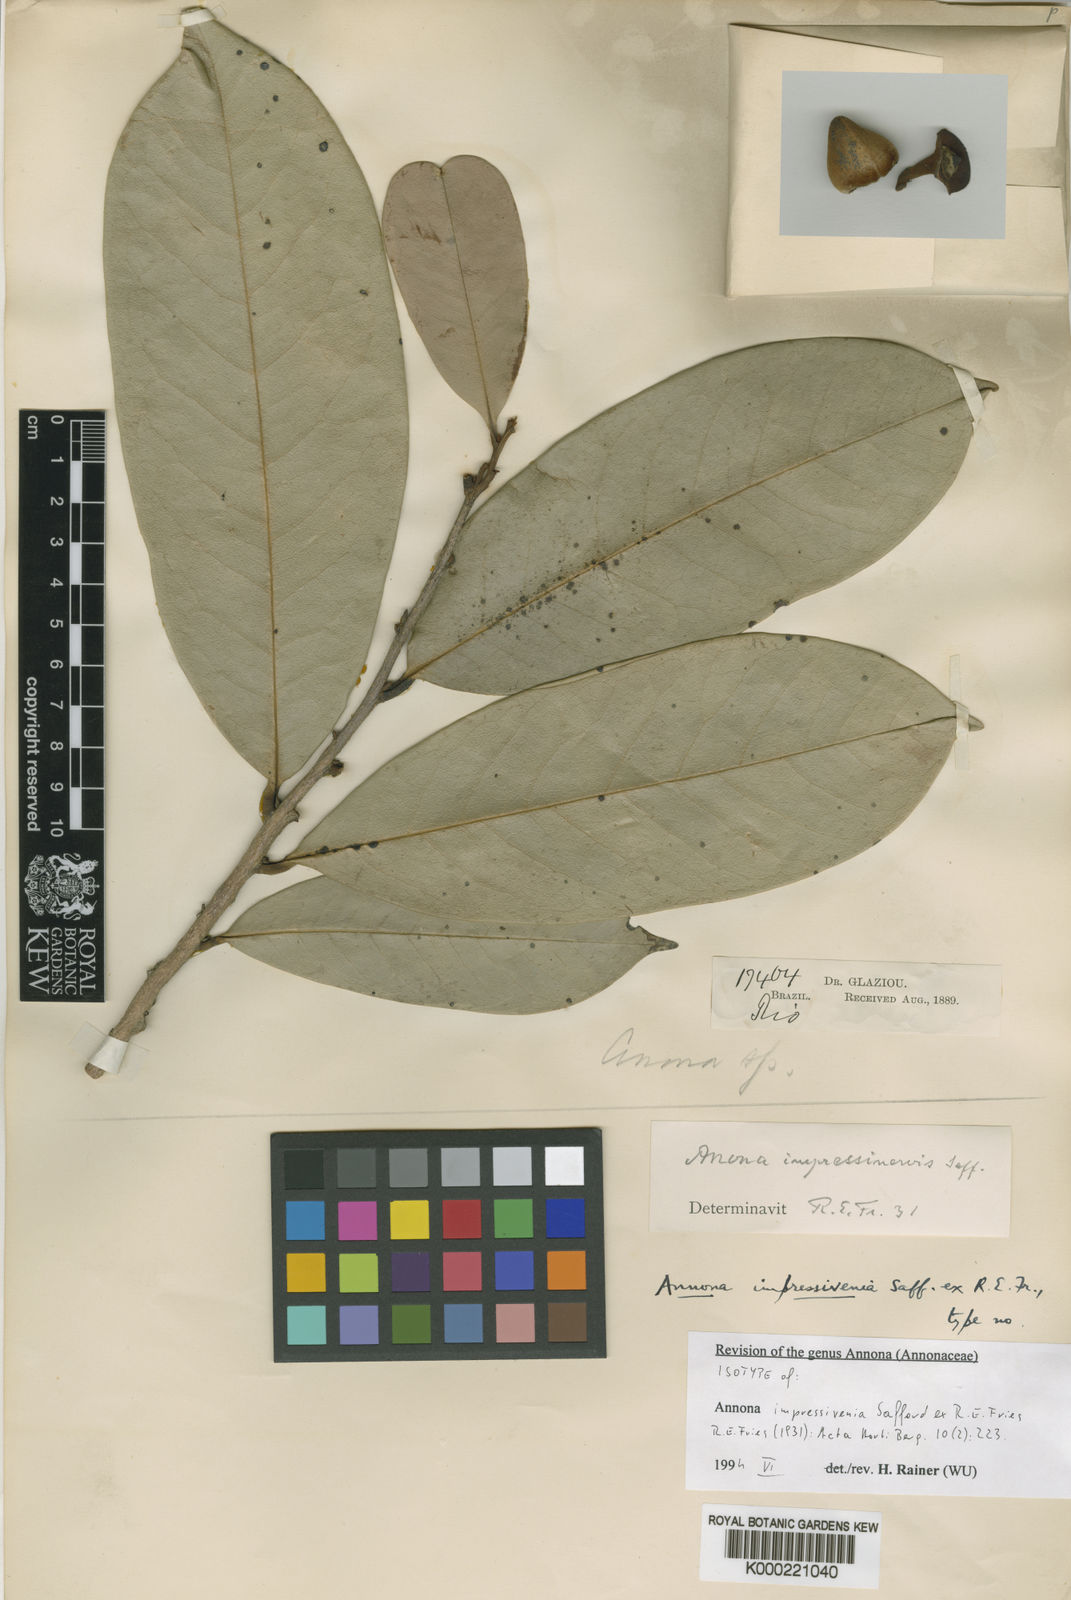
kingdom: Plantae
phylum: Tracheophyta
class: Magnoliopsida
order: Magnoliales
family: Annonaceae
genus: Annona
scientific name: Annona salzmannii
